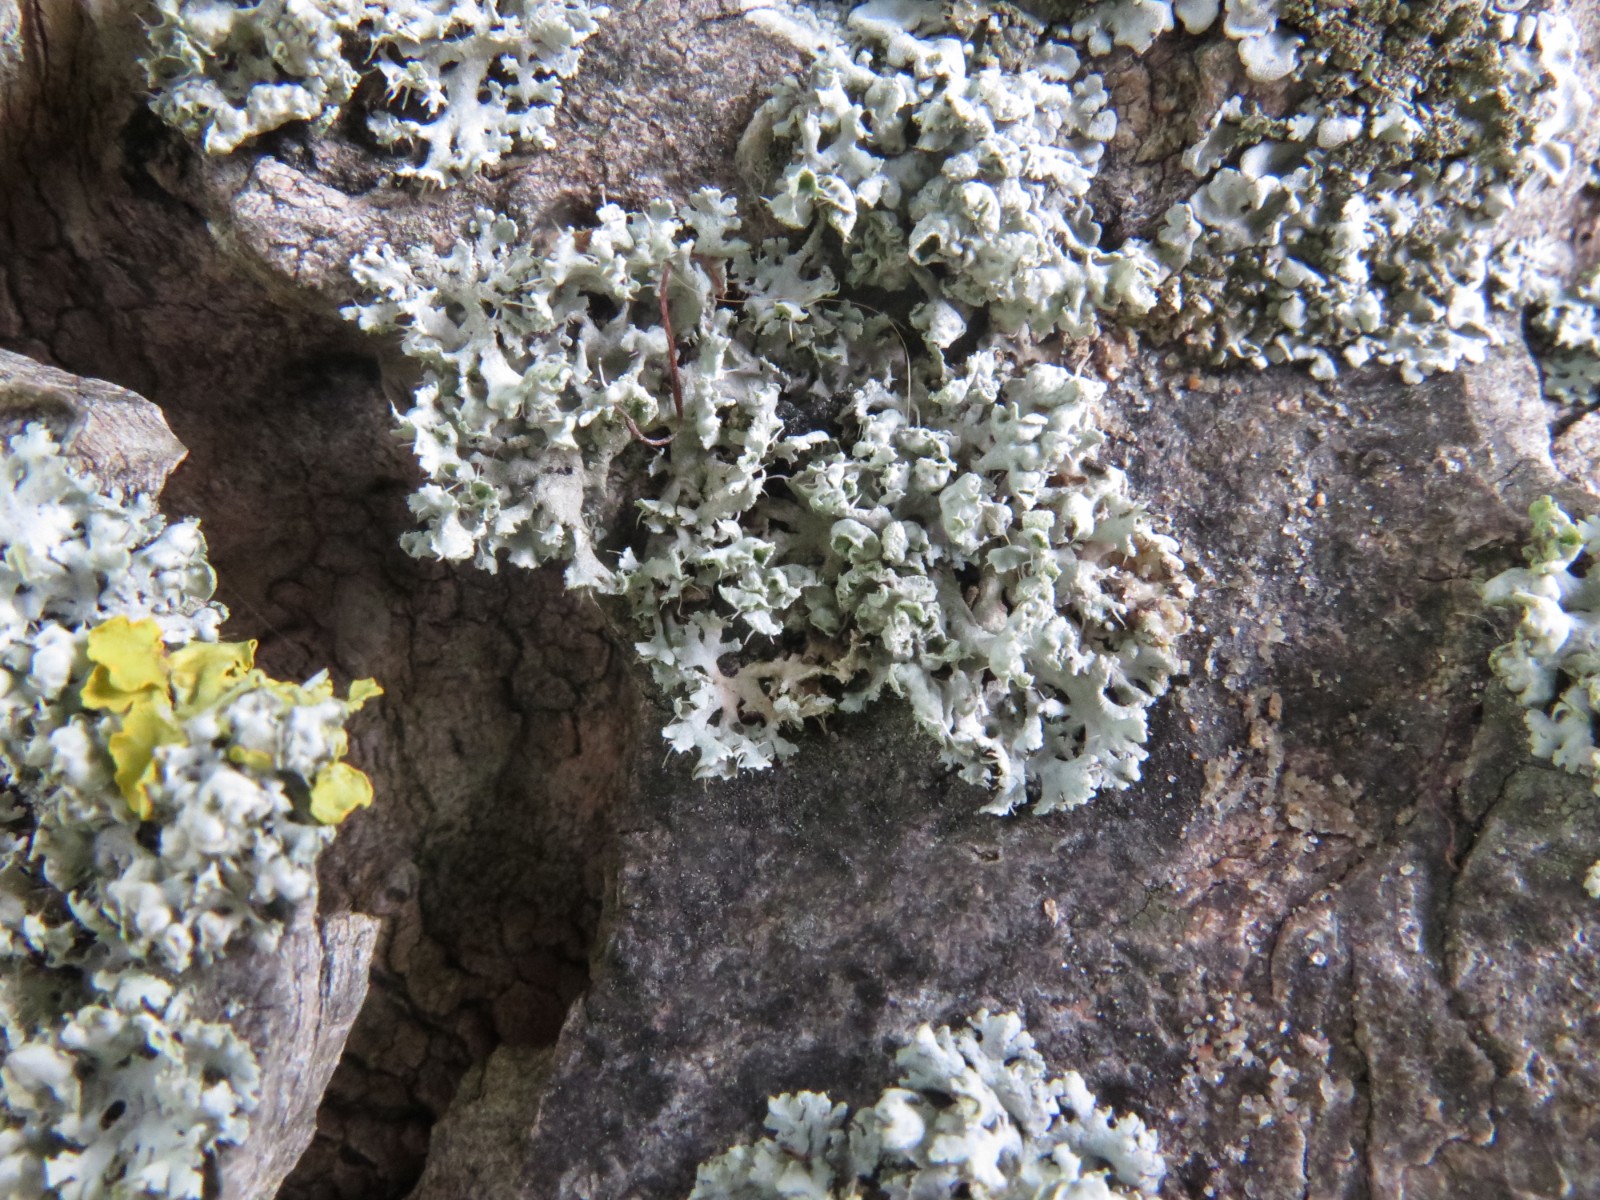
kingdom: Fungi
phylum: Ascomycota
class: Lecanoromycetes
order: Caliciales
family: Physciaceae
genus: Physcia
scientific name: Physcia tenella
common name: spæd rosetlav
